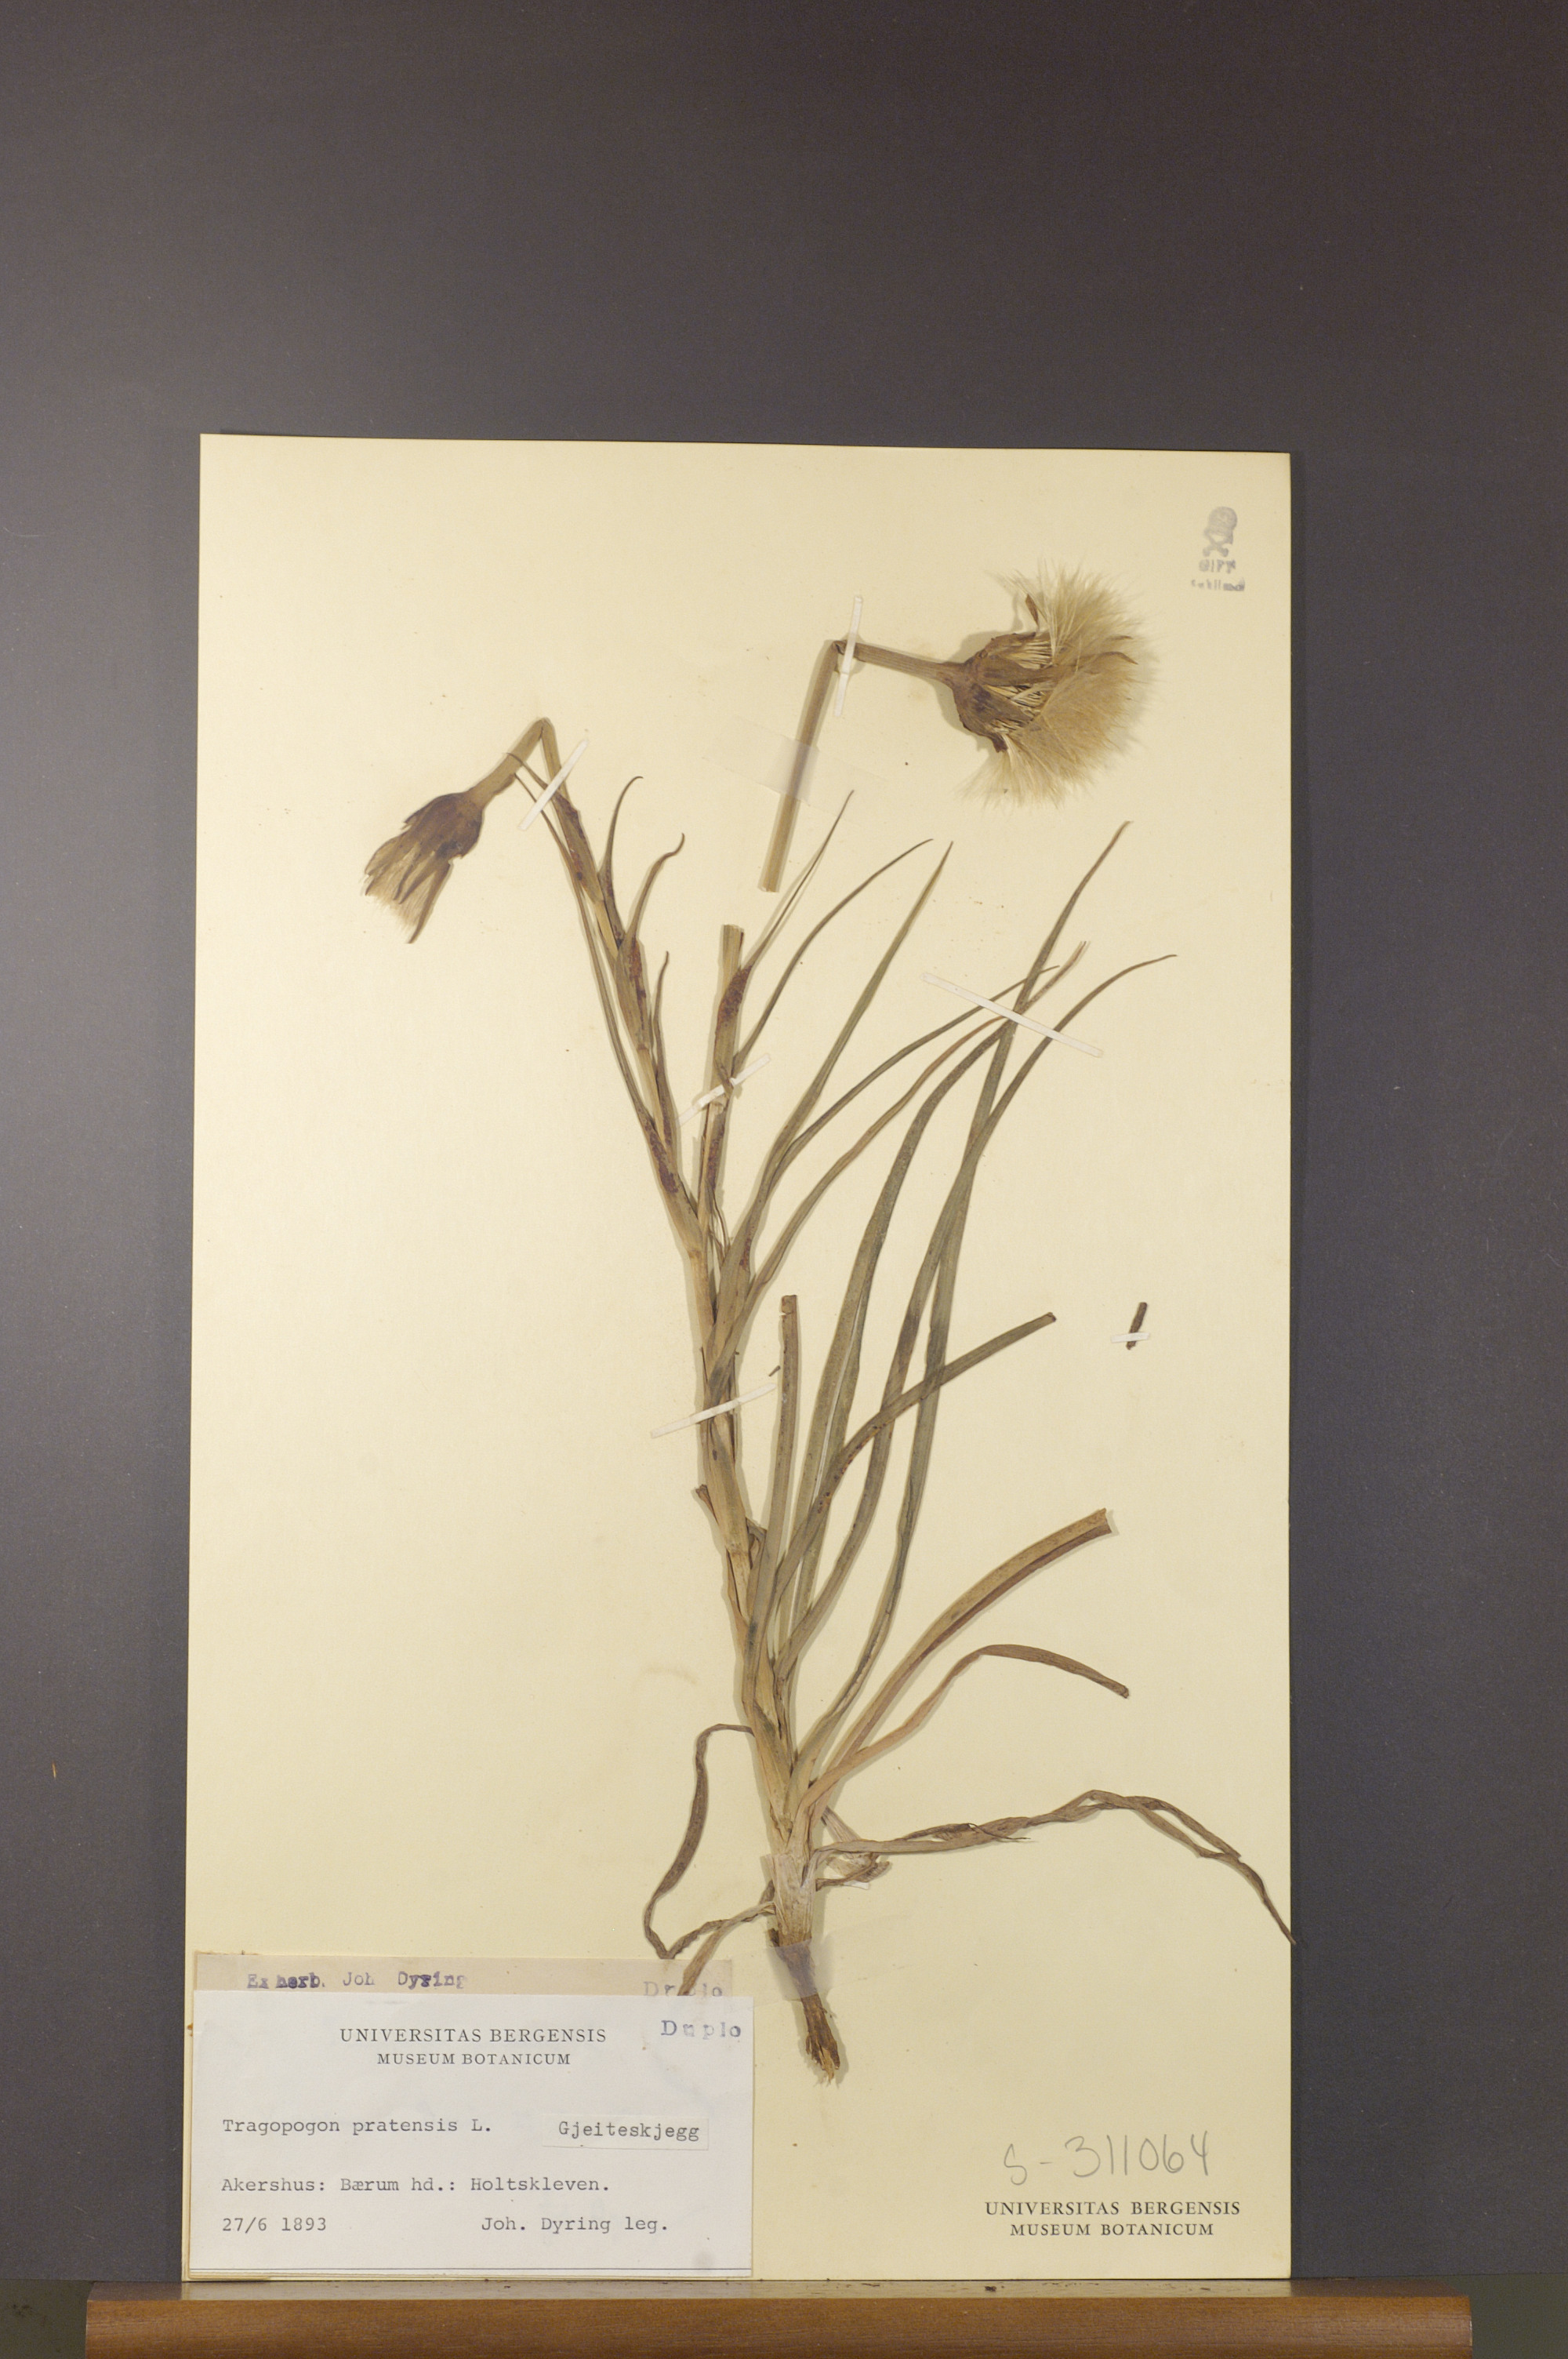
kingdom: Plantae
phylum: Tracheophyta
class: Magnoliopsida
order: Asterales
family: Asteraceae
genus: Tragopogon
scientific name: Tragopogon pratensis
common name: Goat's-beard
